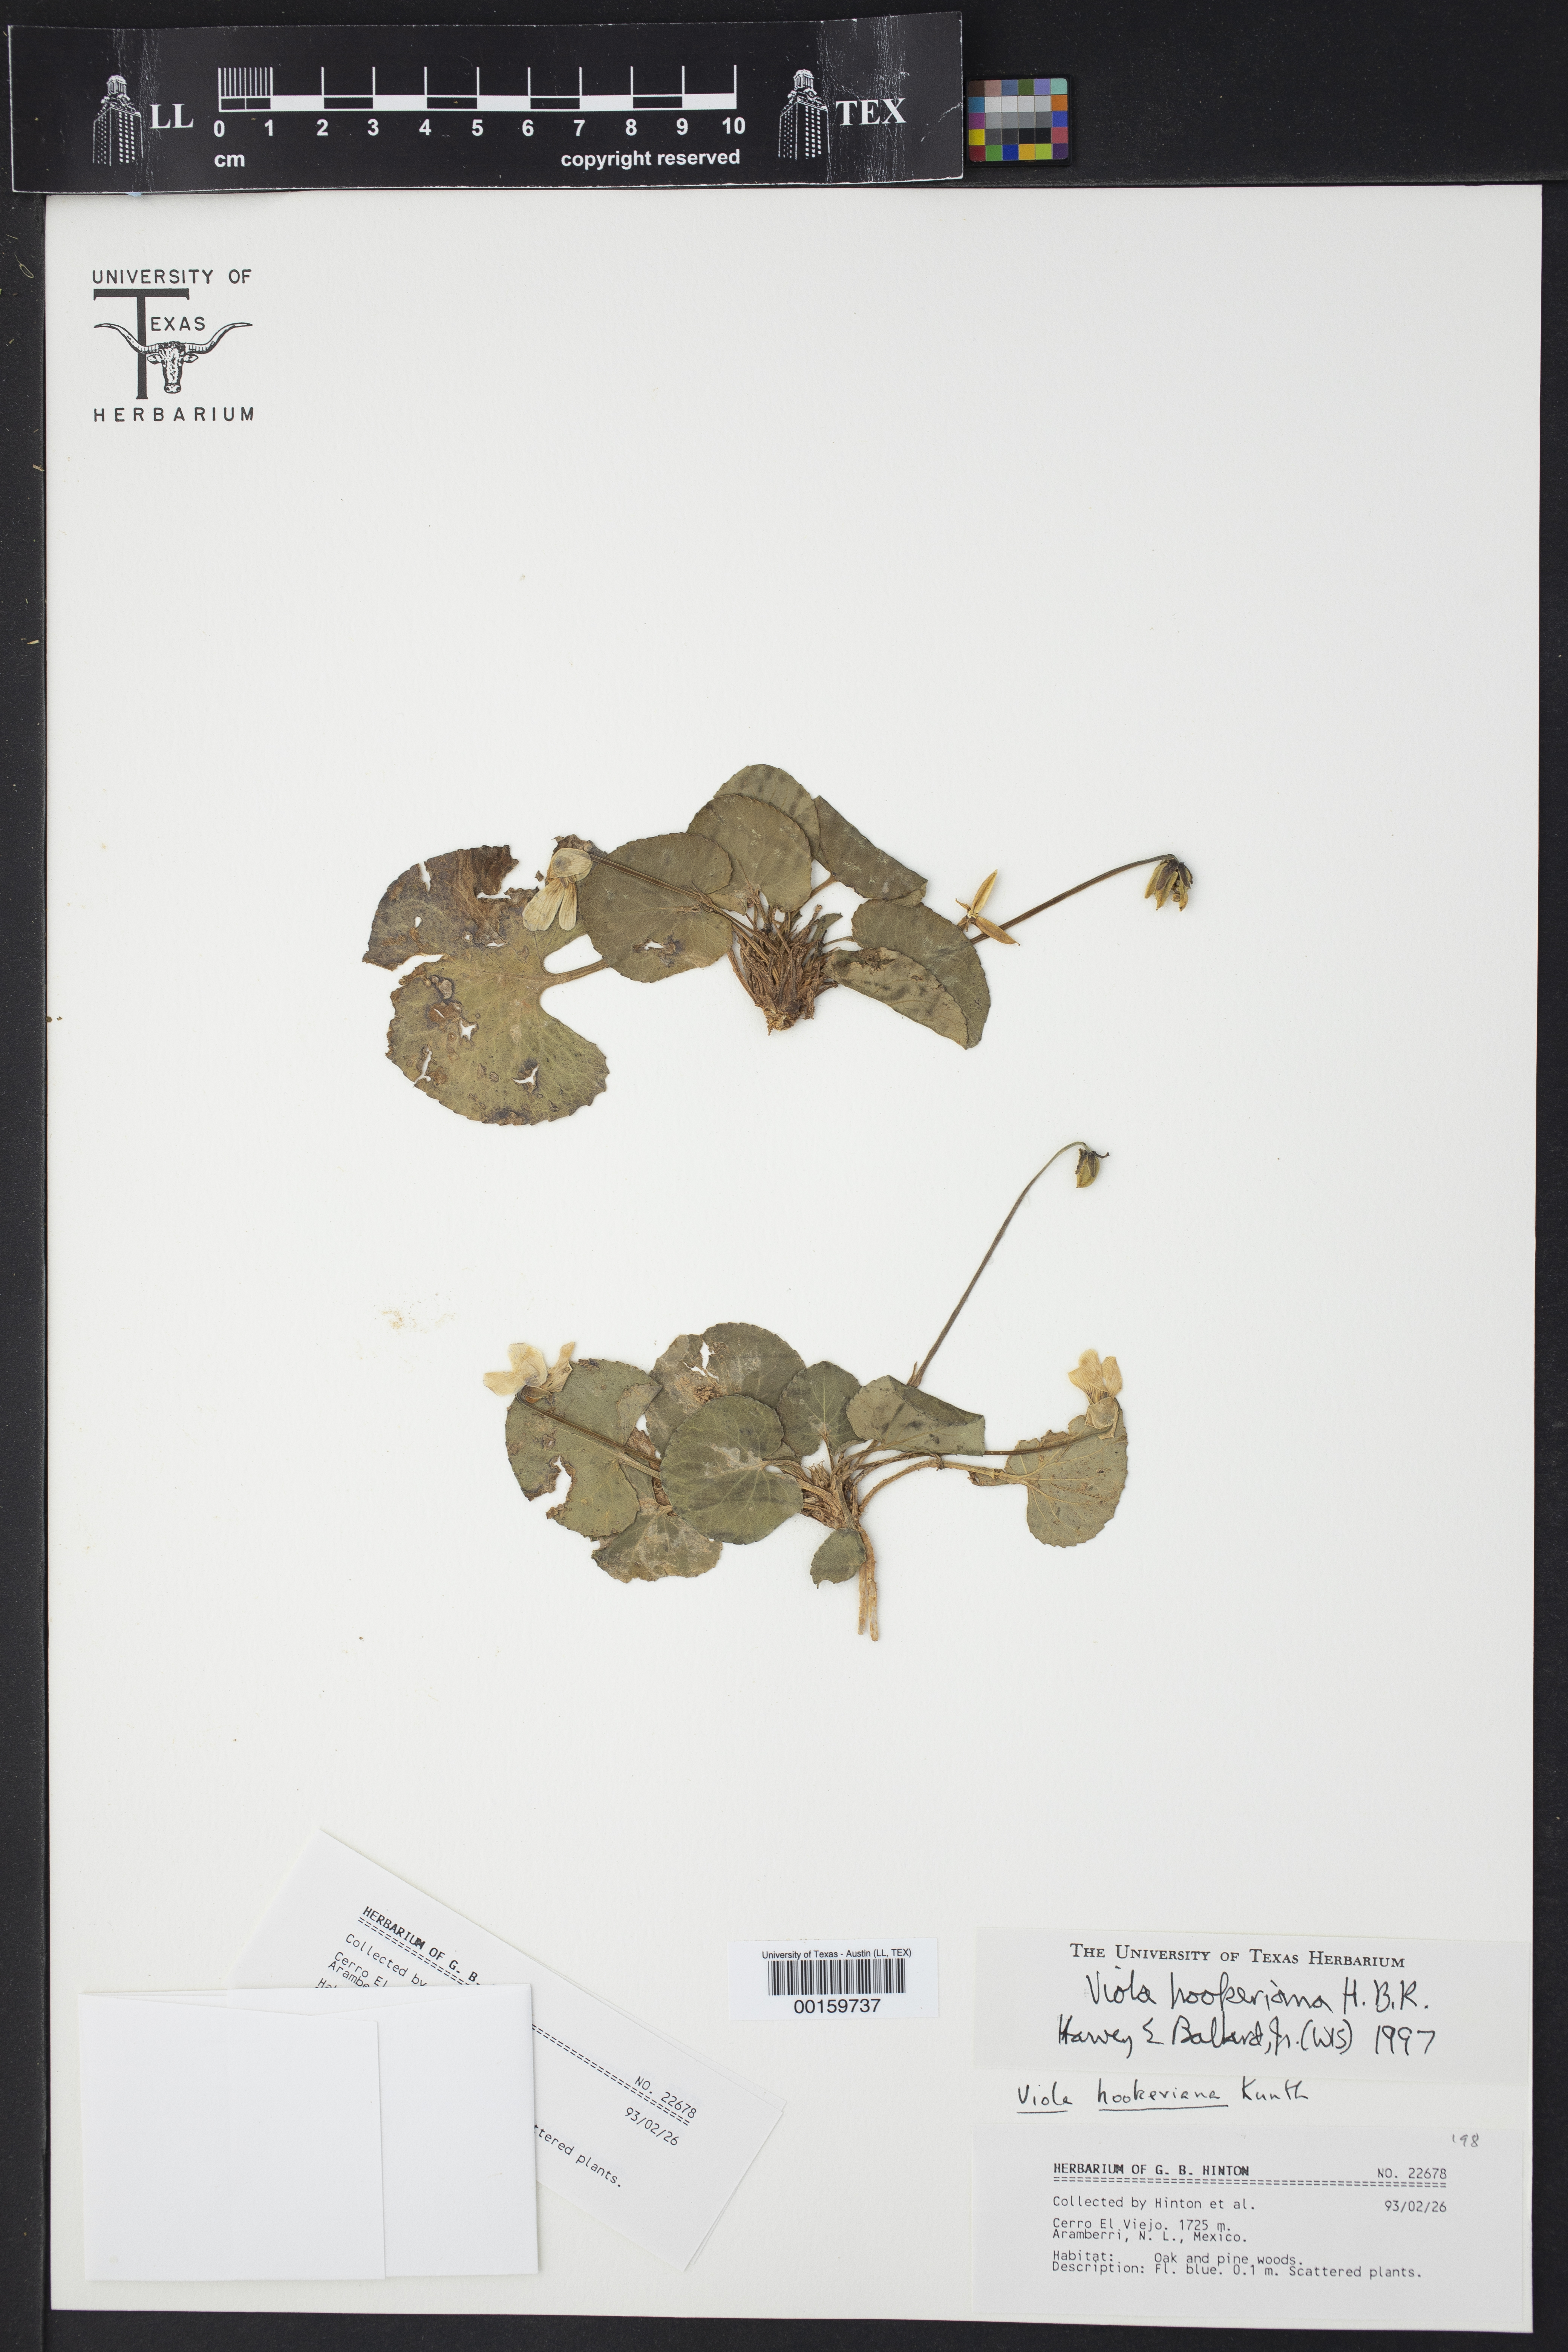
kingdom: Plantae
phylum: Tracheophyta
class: Magnoliopsida
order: Malpighiales
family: Violaceae
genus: Viola
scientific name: Viola hookeriana
